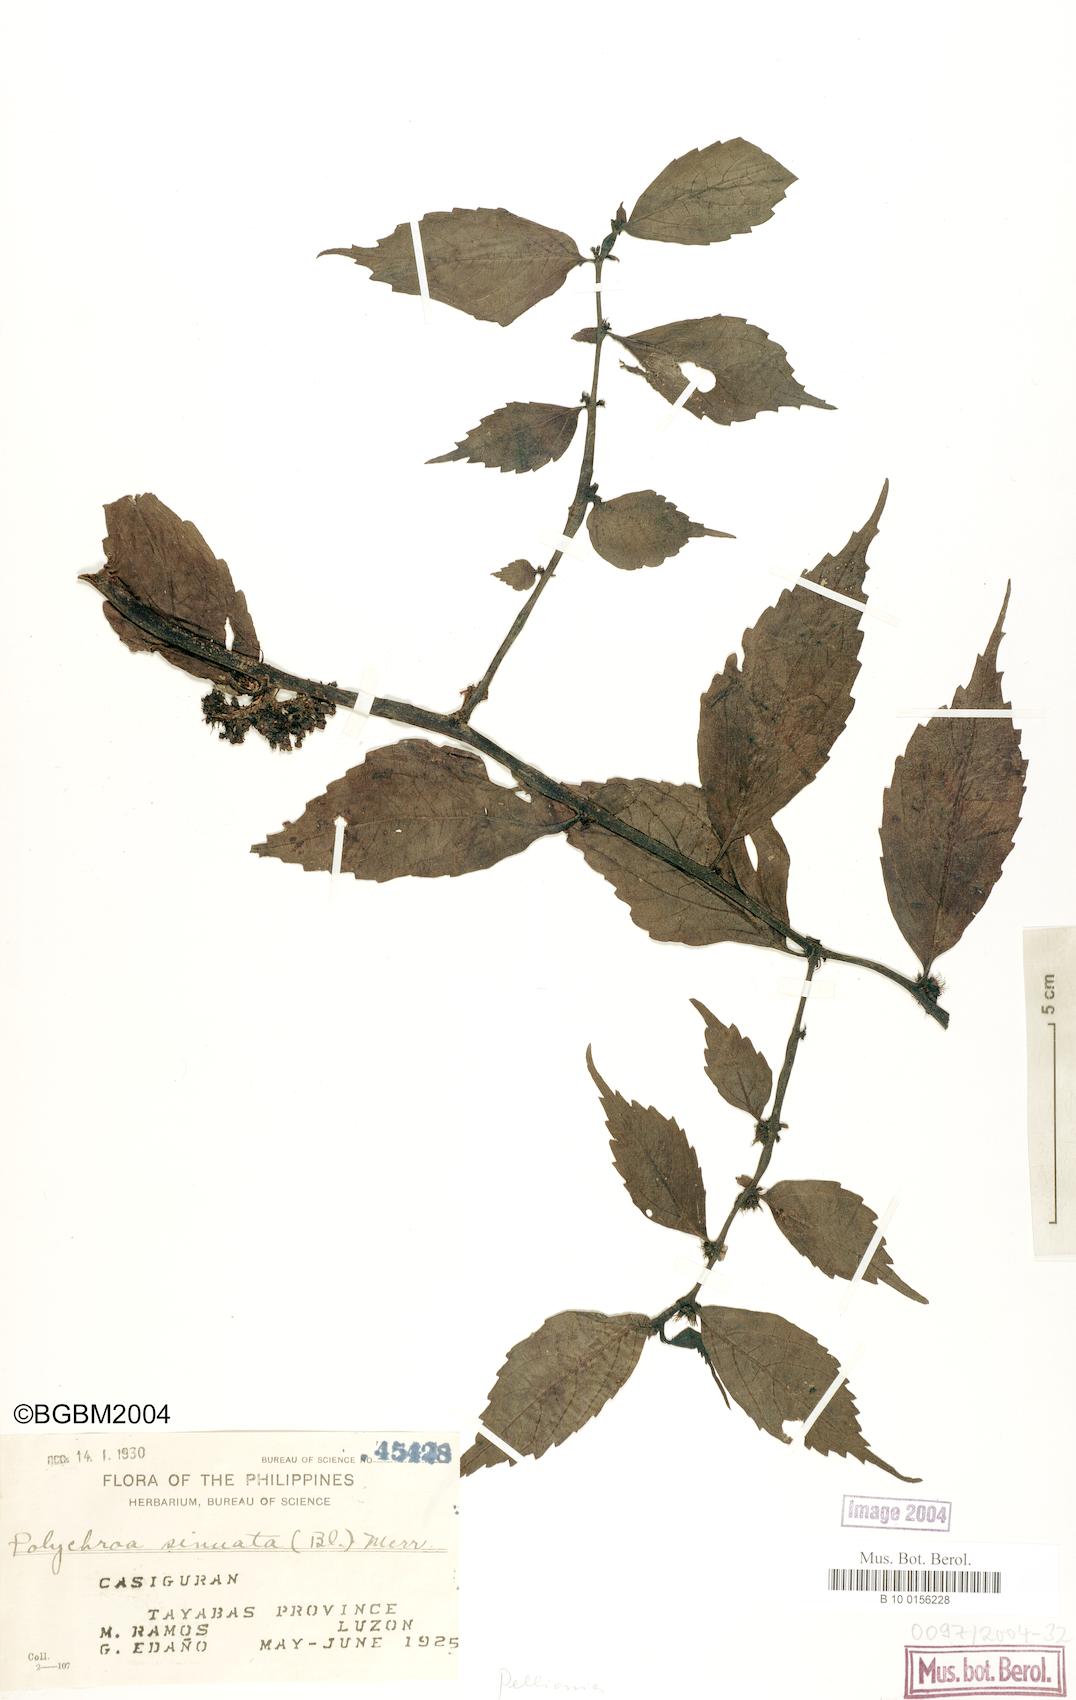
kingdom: Plantae
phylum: Tracheophyta
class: Magnoliopsida
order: Rosales
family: Urticaceae
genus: Elatostema
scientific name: Elatostema sinuatum
